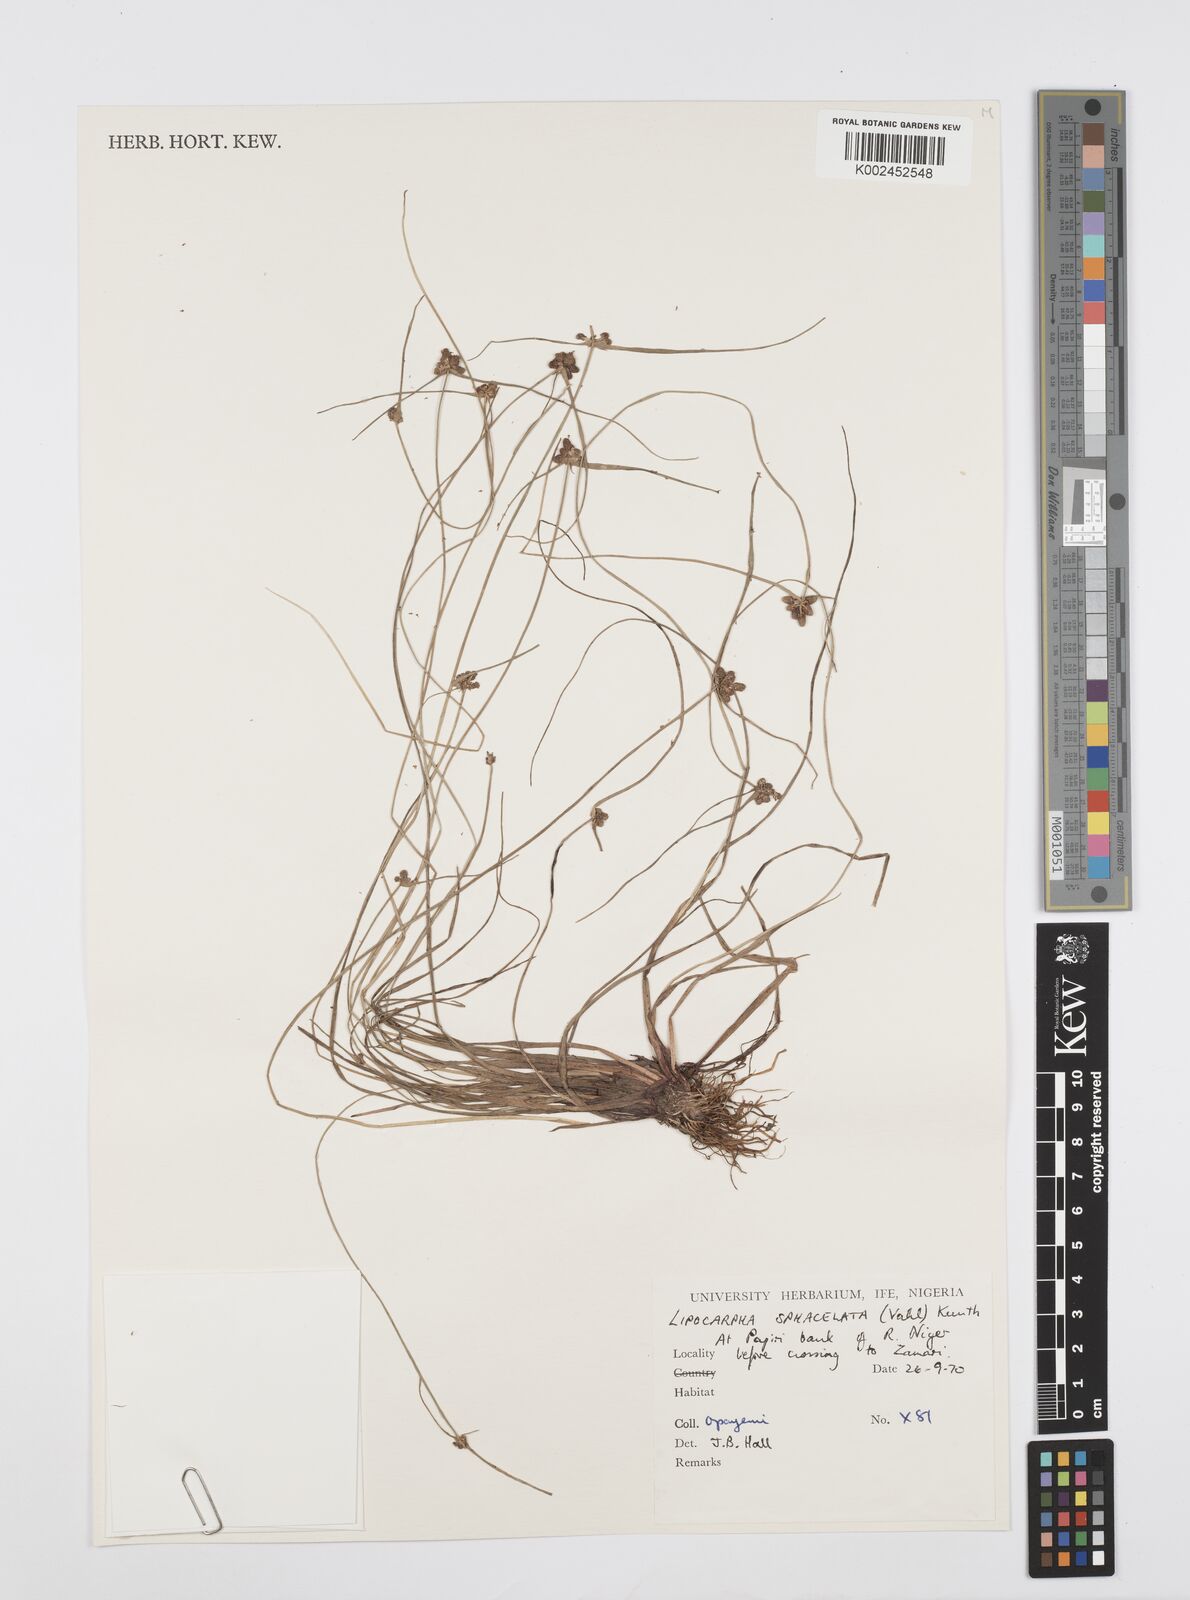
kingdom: Plantae
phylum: Tracheophyta
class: Liliopsida
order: Poales
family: Cyperaceae
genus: Cyperus
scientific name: Cyperus filiformis
